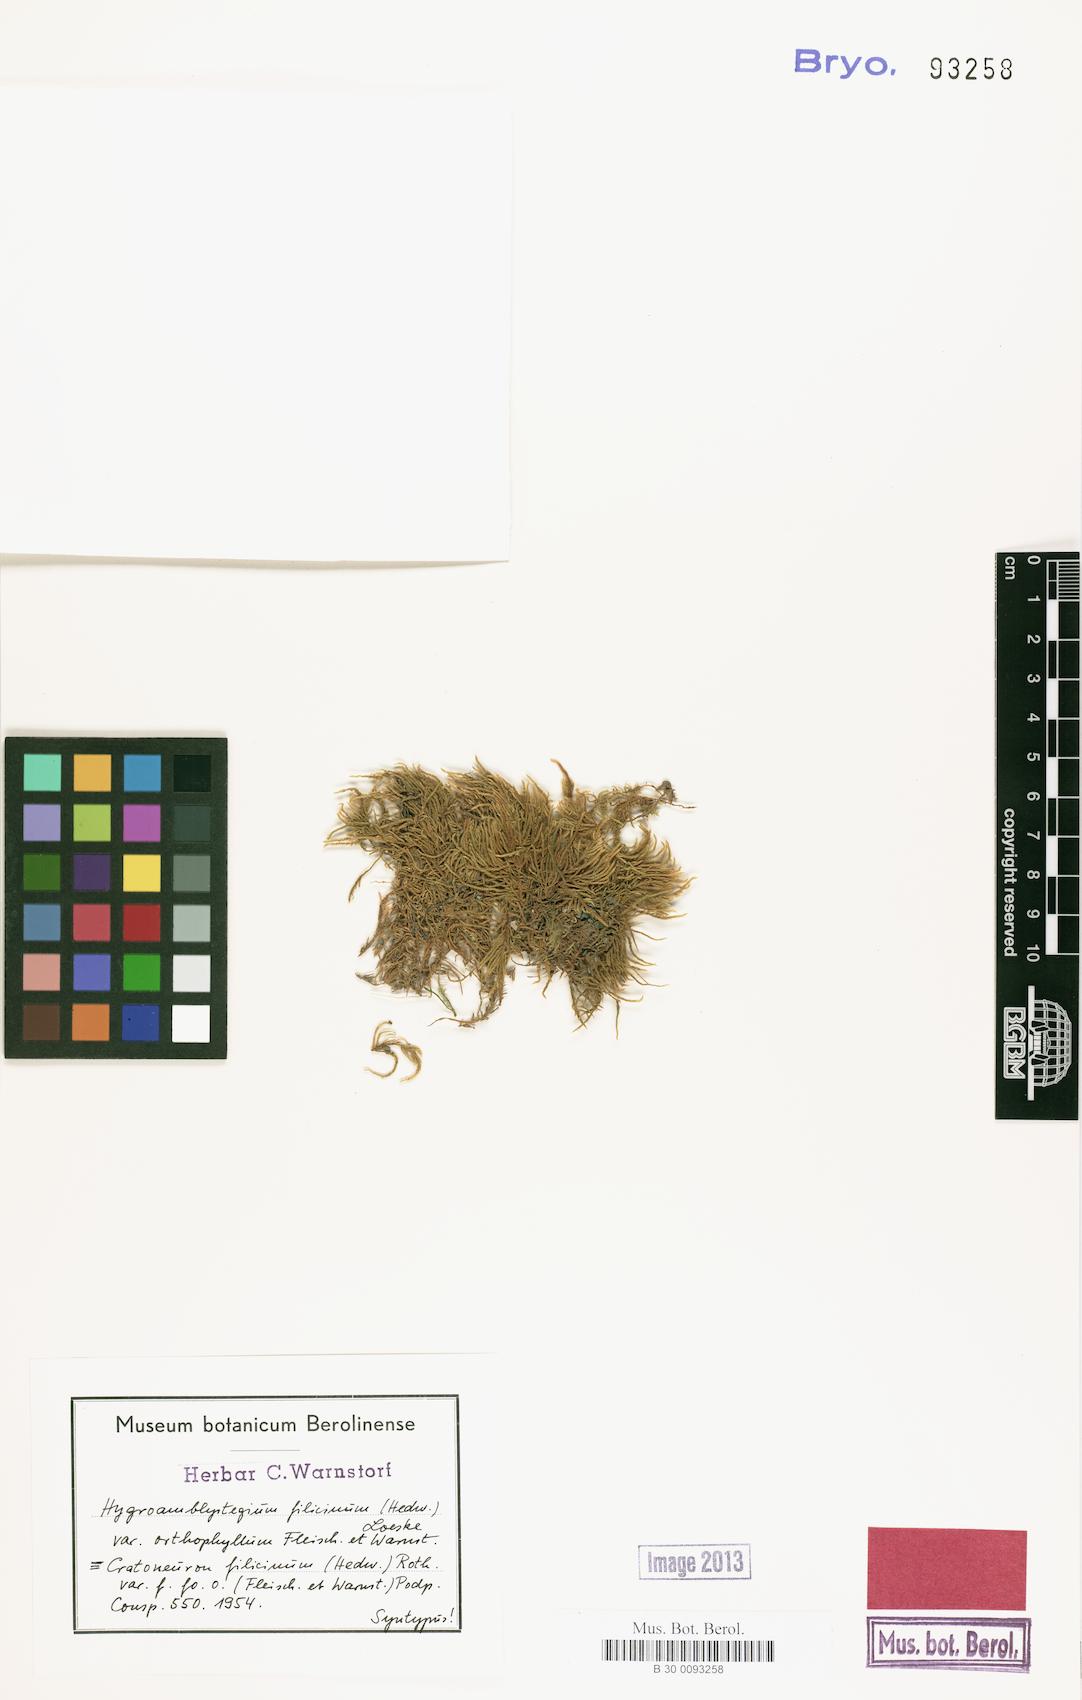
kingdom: Plantae
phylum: Bryophyta
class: Bryopsida
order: Hypnales
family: Amblystegiaceae
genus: Cratoneuron
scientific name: Cratoneuron filicinum
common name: Fern-leaved hook moss
